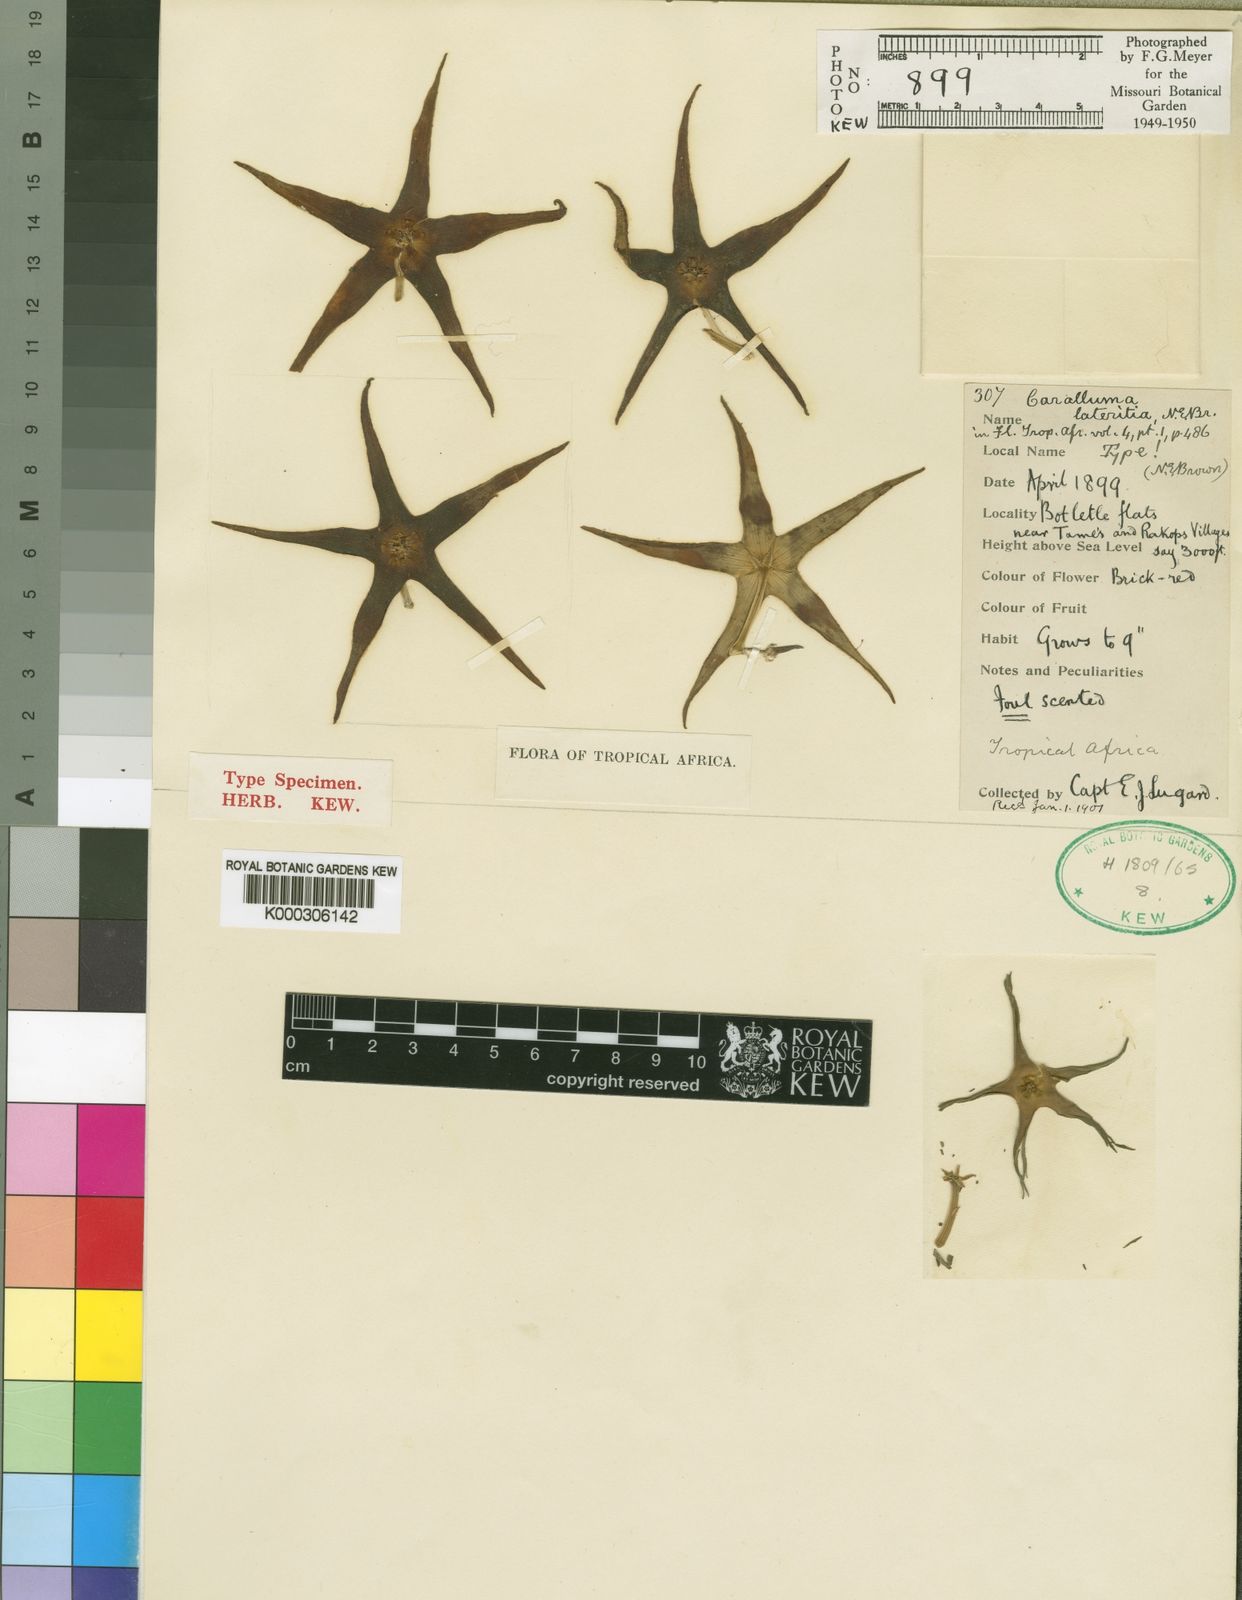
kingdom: Plantae
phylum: Tracheophyta
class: Magnoliopsida
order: Gentianales
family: Apocynaceae
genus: Ceropegia
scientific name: Ceropegia lutea
